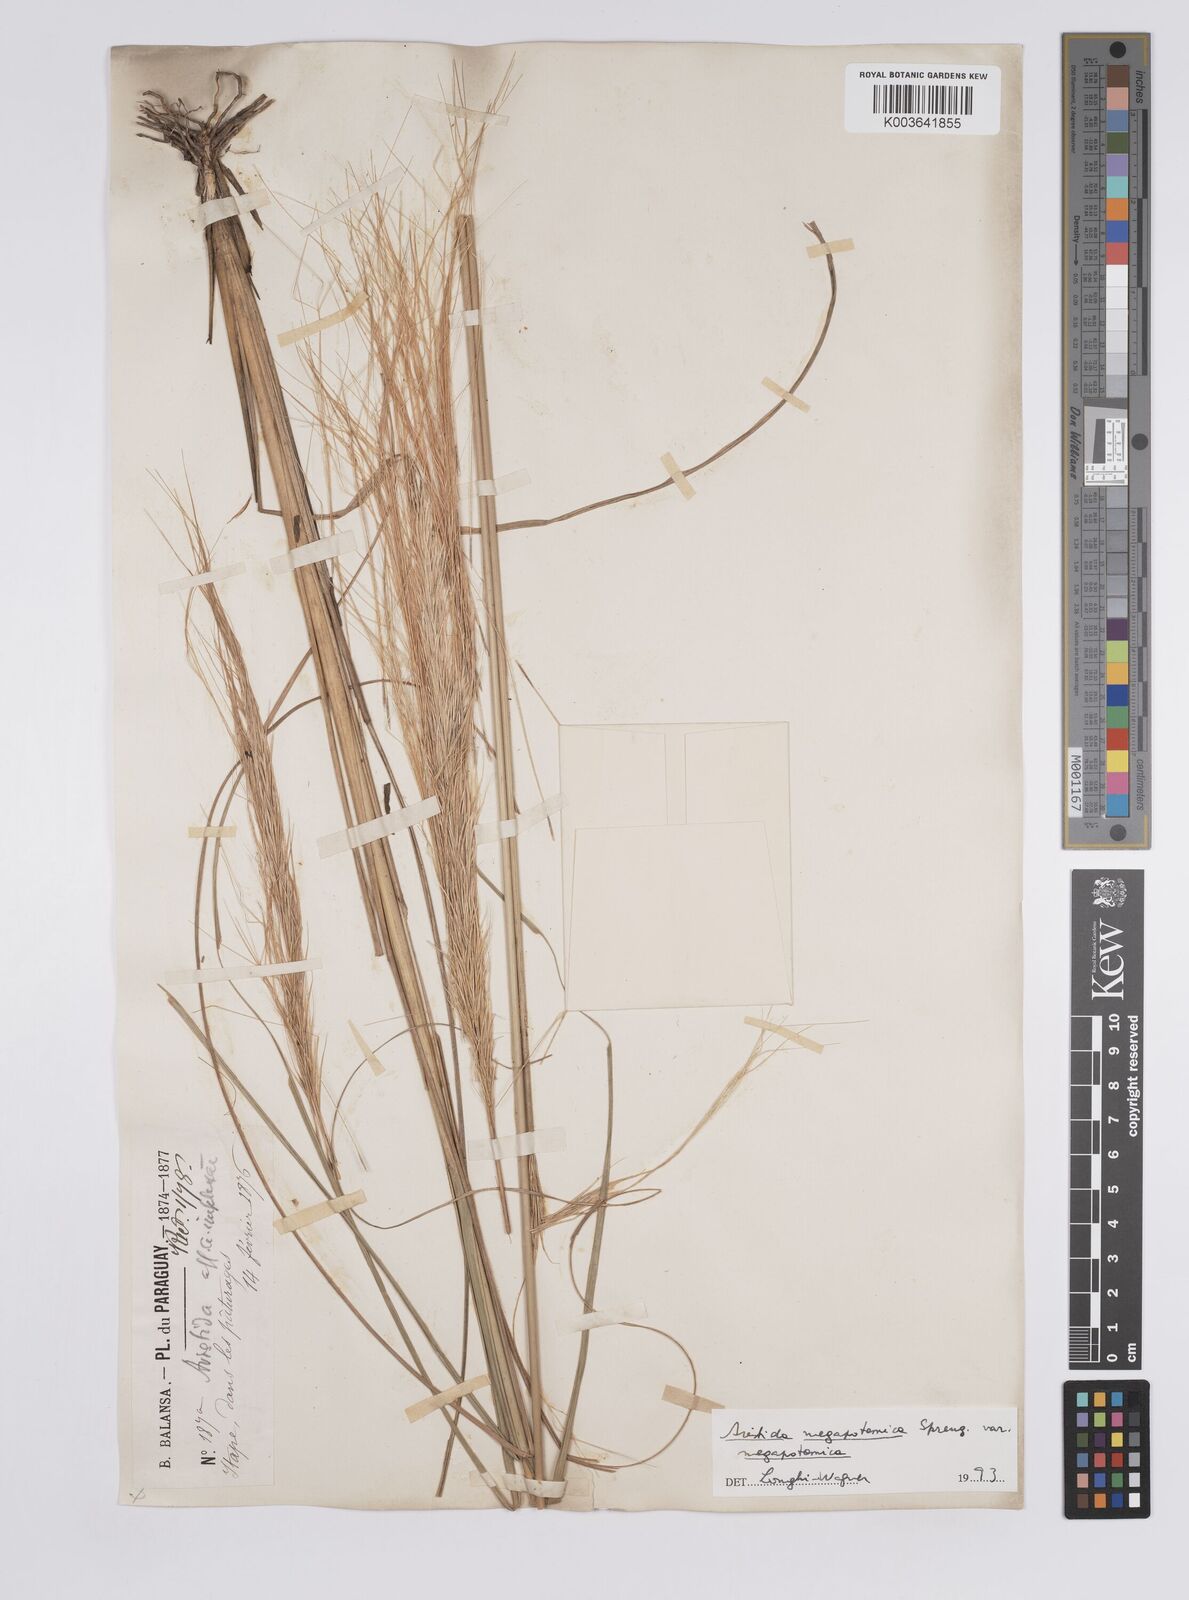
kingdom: Plantae
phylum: Tracheophyta
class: Liliopsida
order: Poales
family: Poaceae
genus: Aristida
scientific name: Aristida megapotamica
